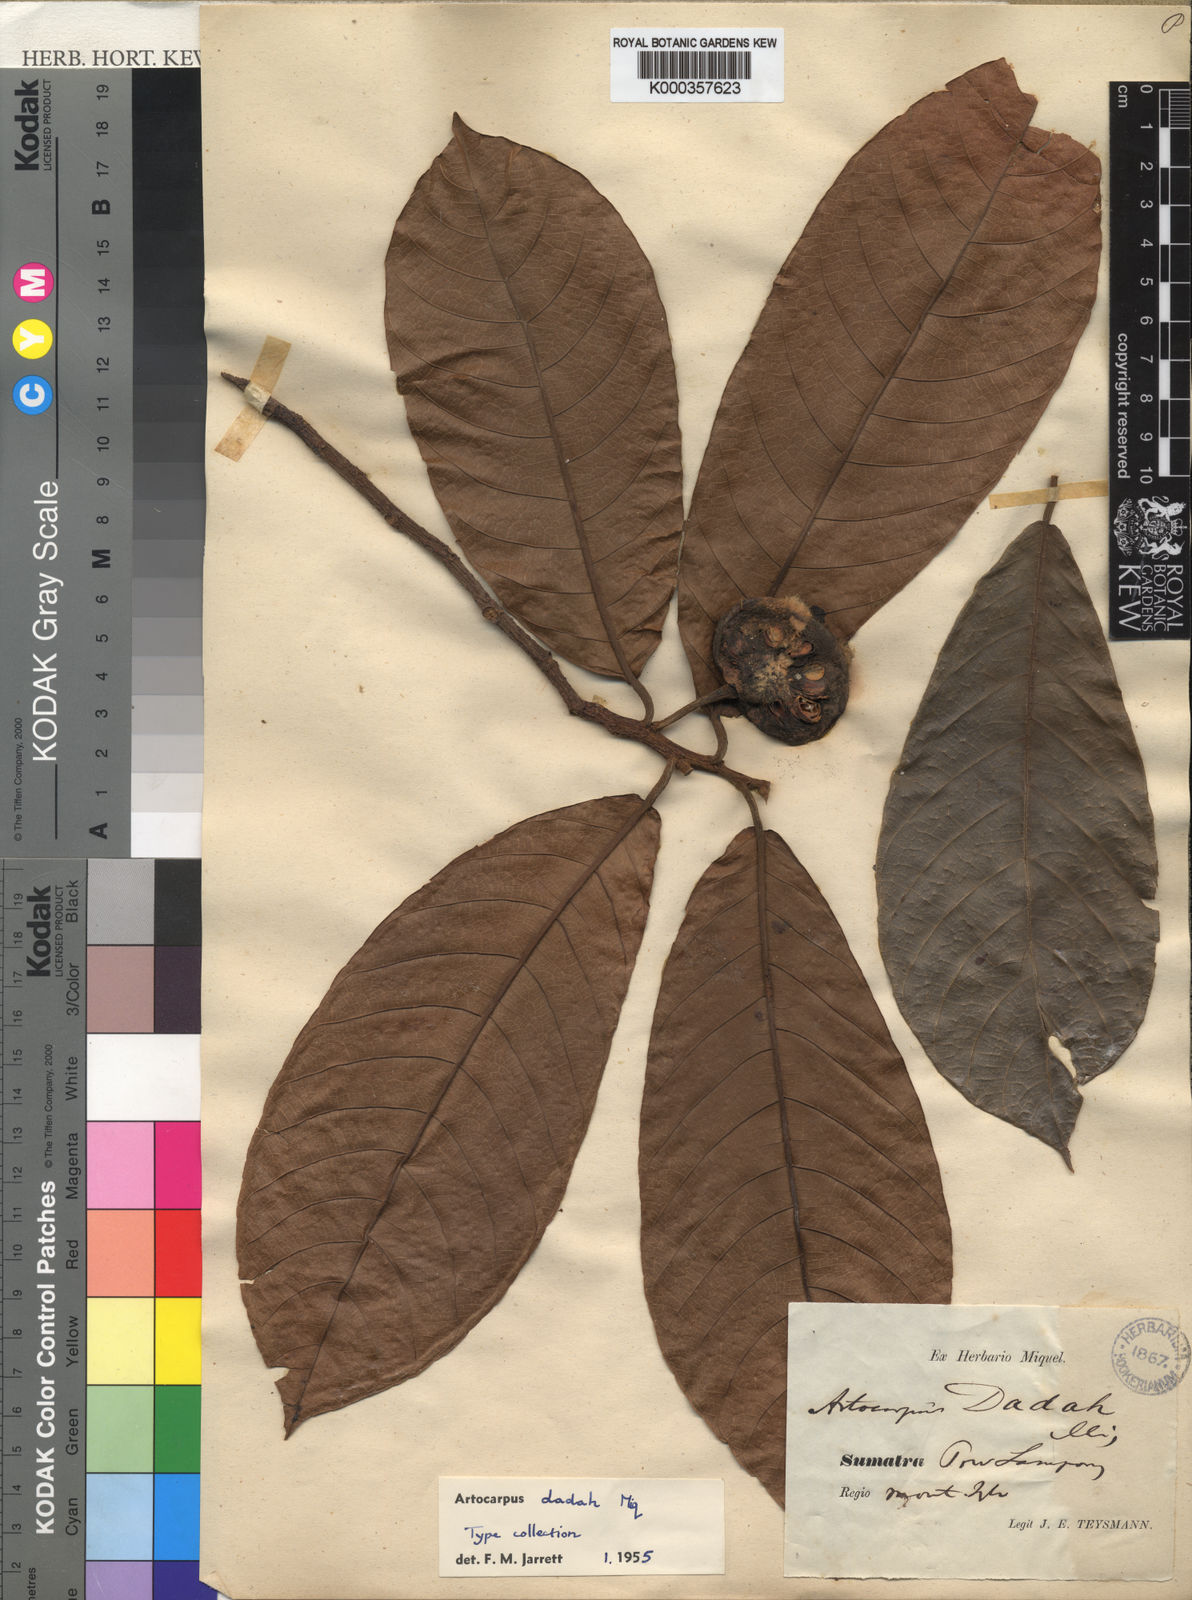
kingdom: Plantae
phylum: Tracheophyta
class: Magnoliopsida
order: Rosales
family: Moraceae
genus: Artocarpus
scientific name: Artocarpus lacucha
